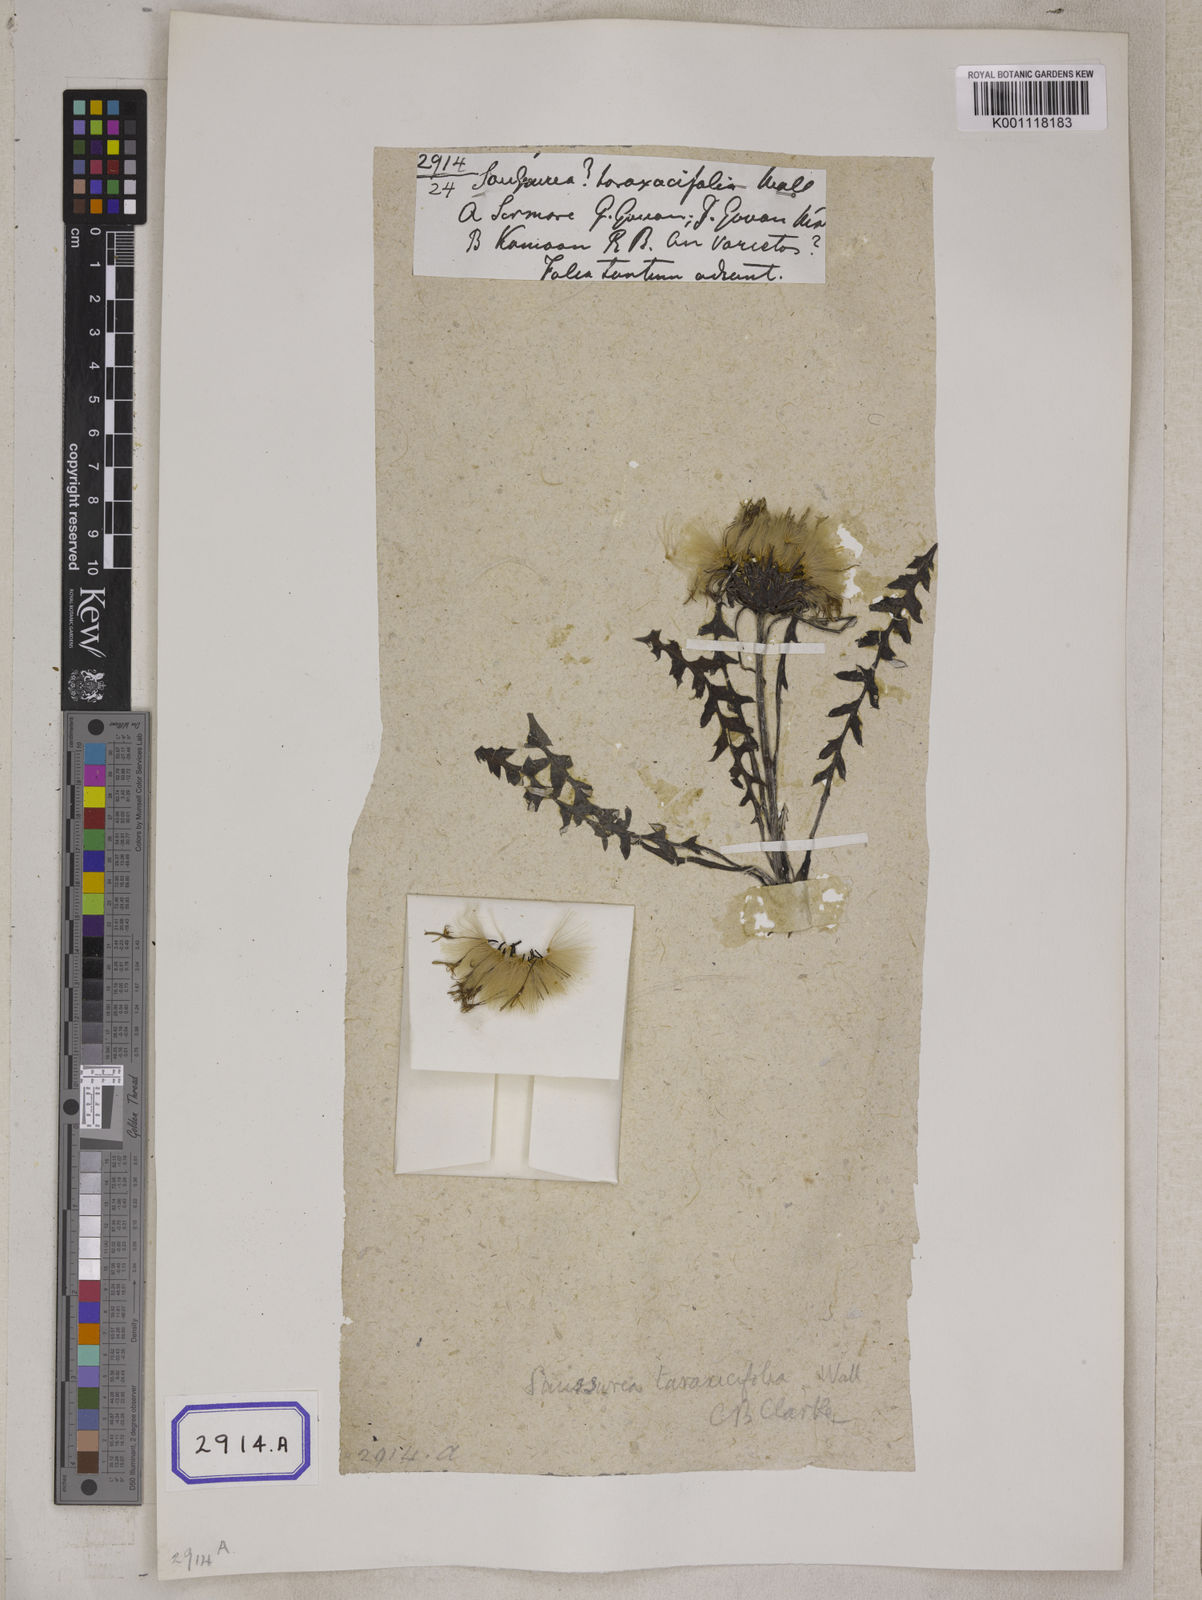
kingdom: Plantae
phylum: Tracheophyta
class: Magnoliopsida
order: Asterales
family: Asteraceae
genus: Saussurea
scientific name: Saussurea
